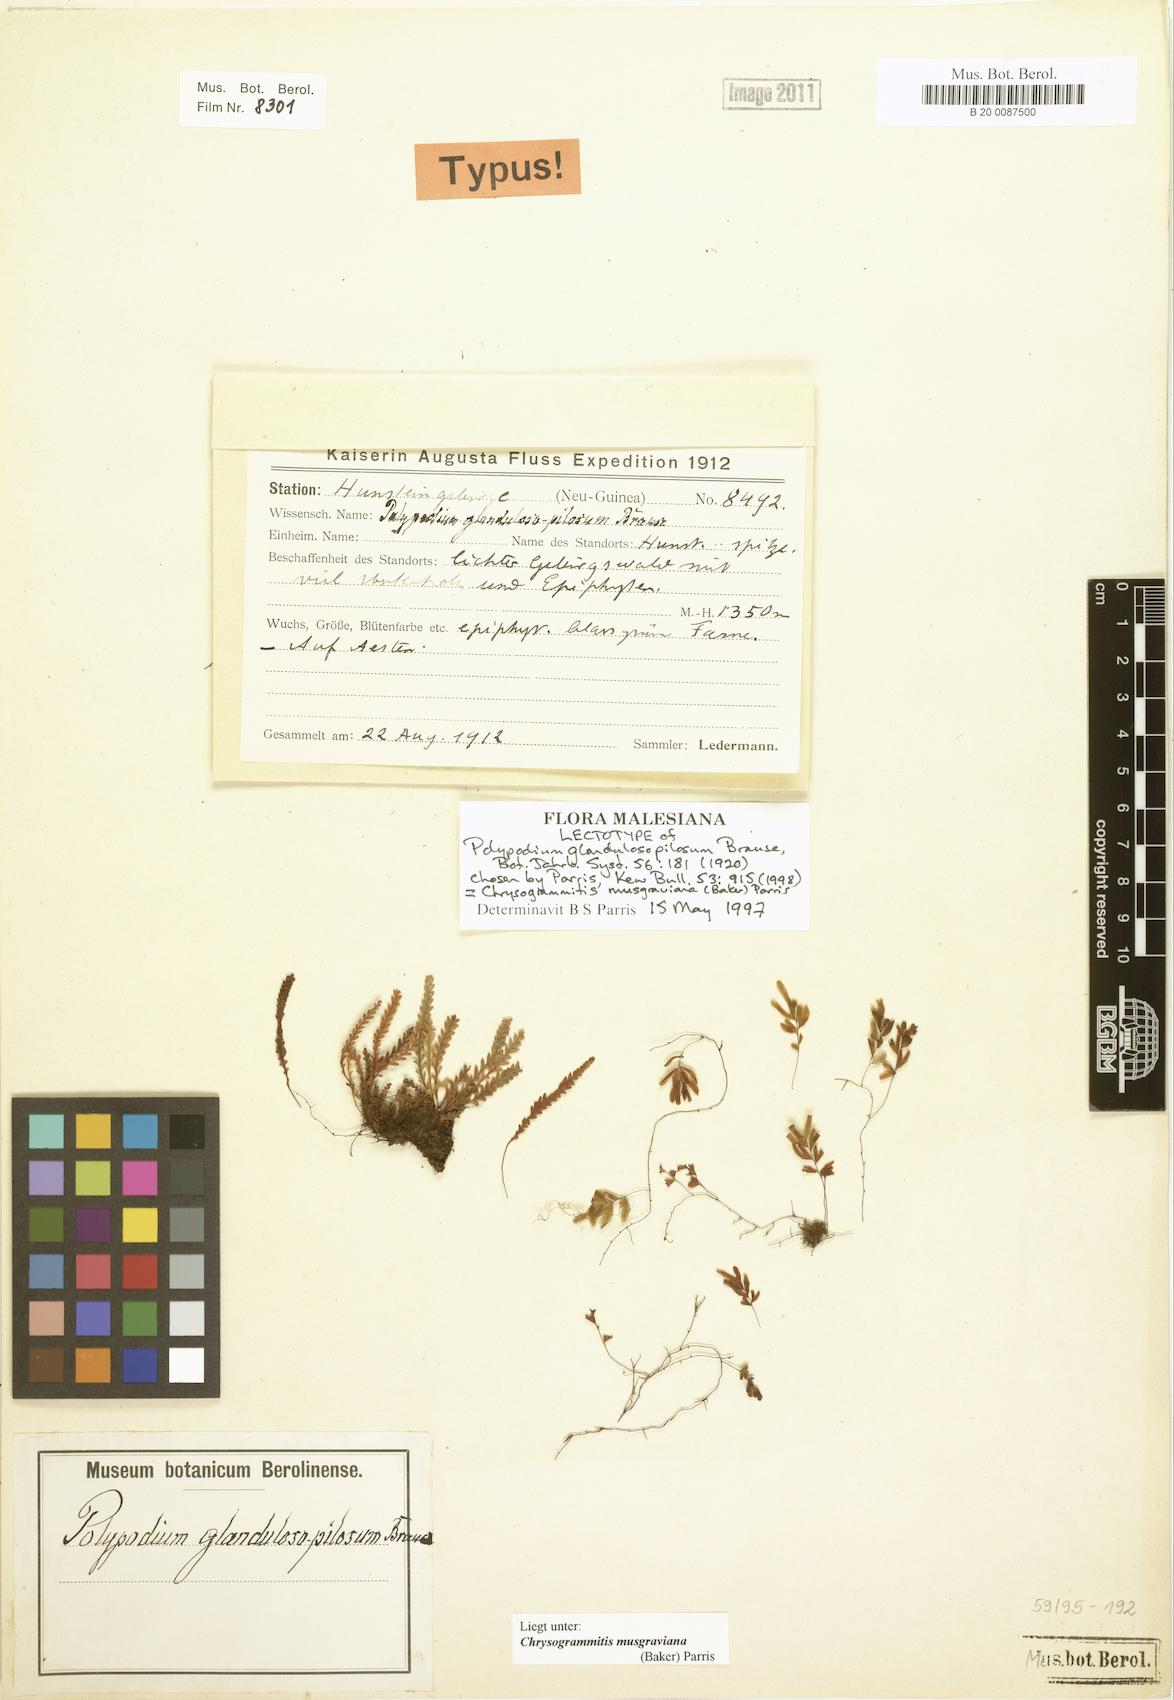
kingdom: Plantae
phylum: Tracheophyta
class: Polypodiopsida
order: Polypodiales
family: Polypodiaceae
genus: Chrysogrammitis
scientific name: Chrysogrammitis musgraviana
